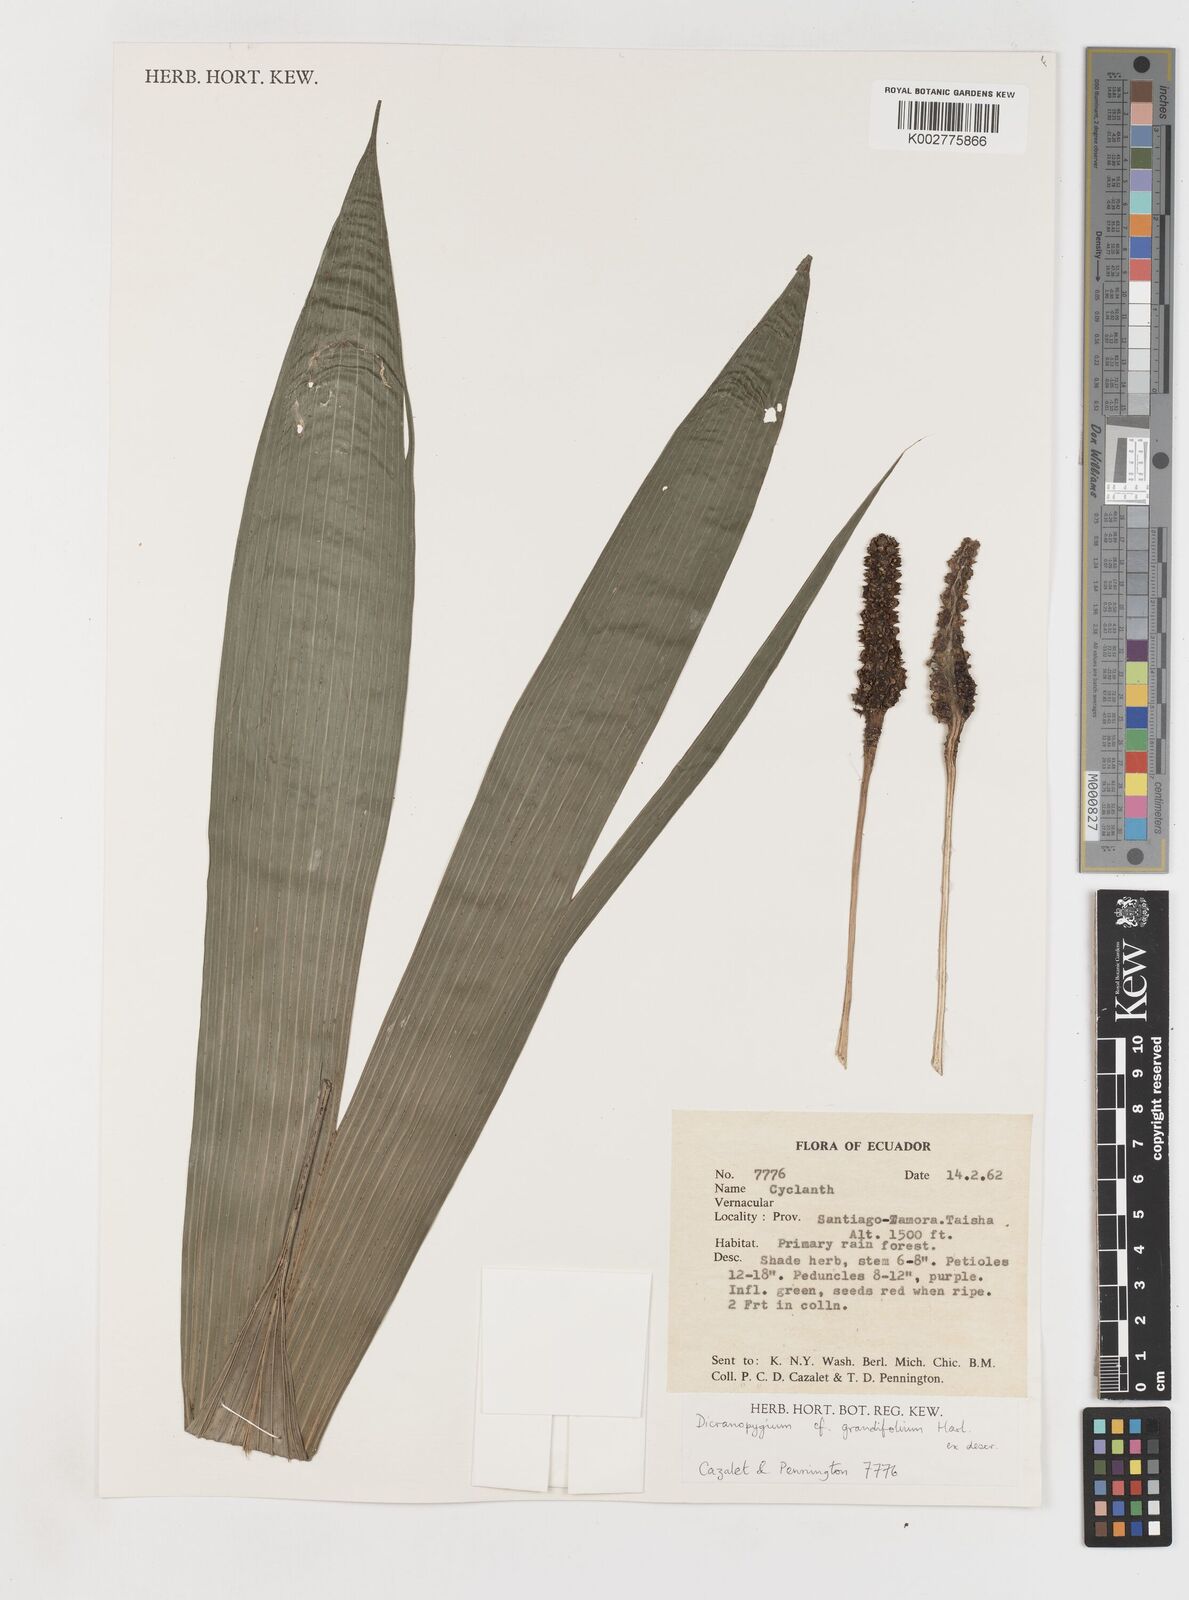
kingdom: Plantae
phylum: Tracheophyta
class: Liliopsida
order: Pandanales
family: Cyclanthaceae
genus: Dicranopygium
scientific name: Dicranopygium grandifolium
